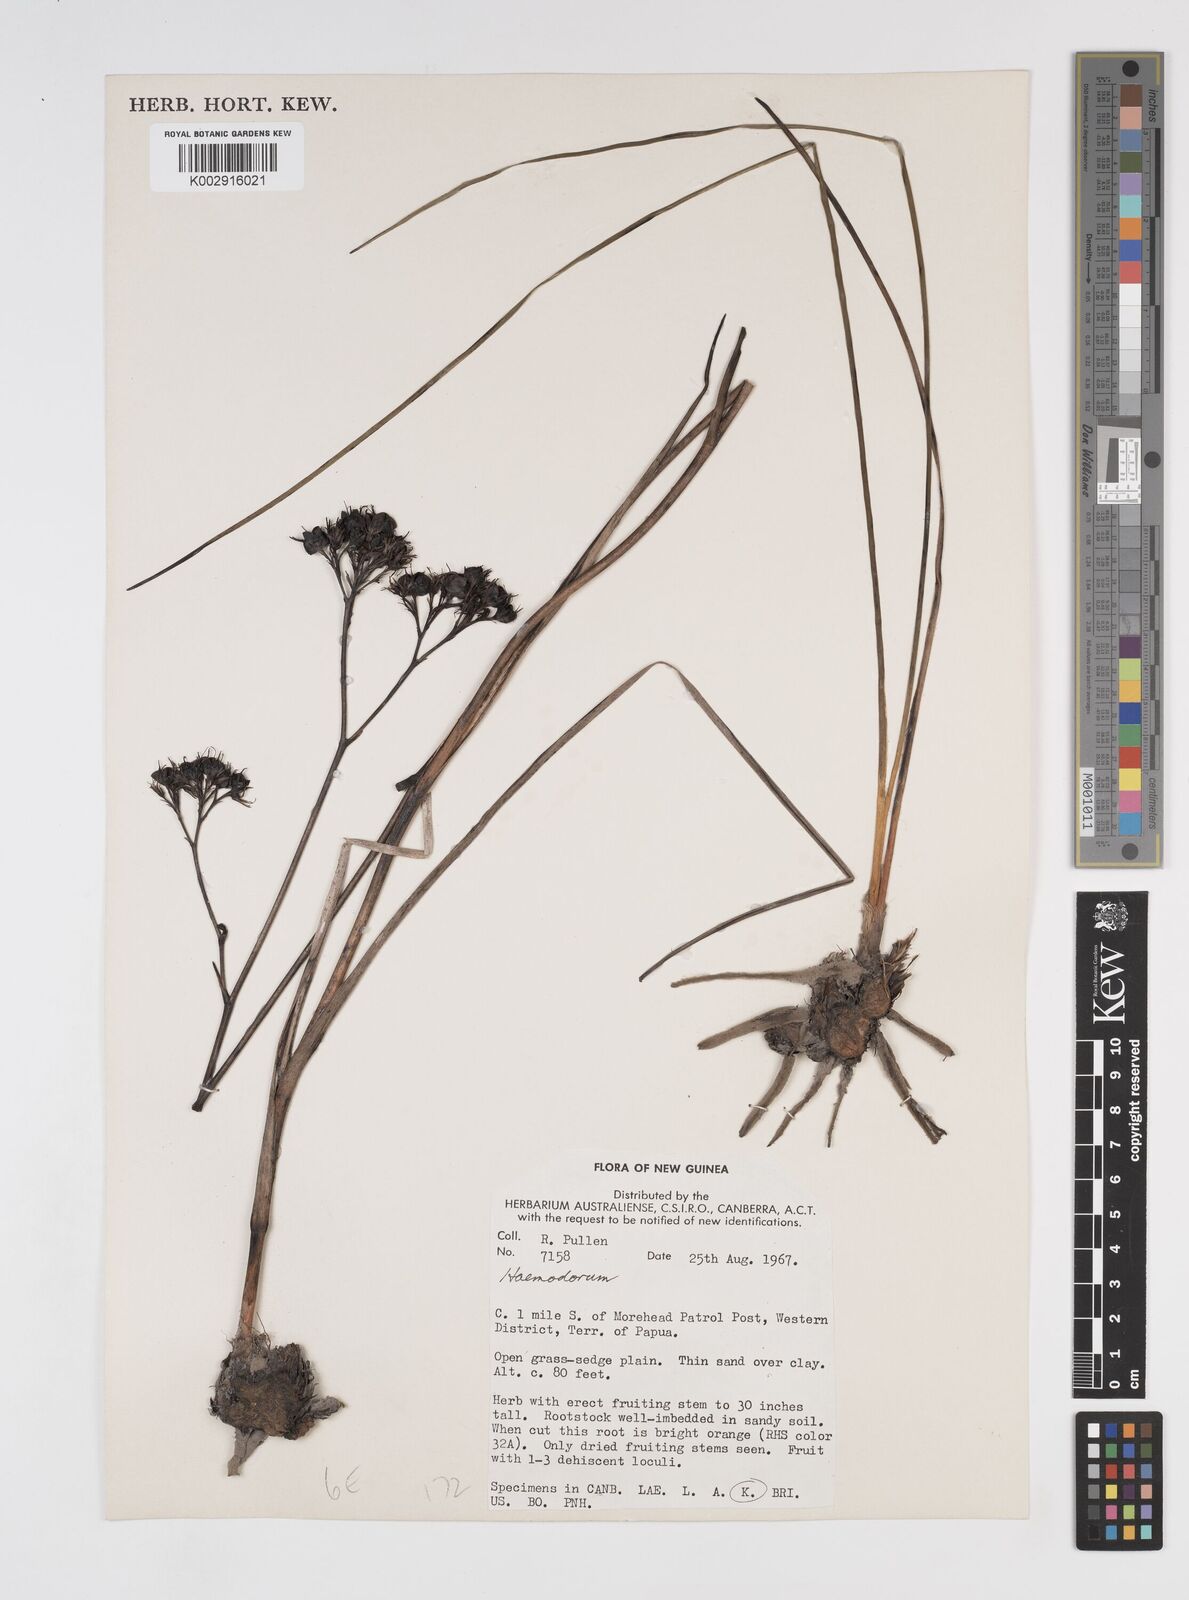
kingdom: Plantae
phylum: Tracheophyta
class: Liliopsida
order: Commelinales
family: Haemodoraceae
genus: Haemodorum
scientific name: Haemodorum
